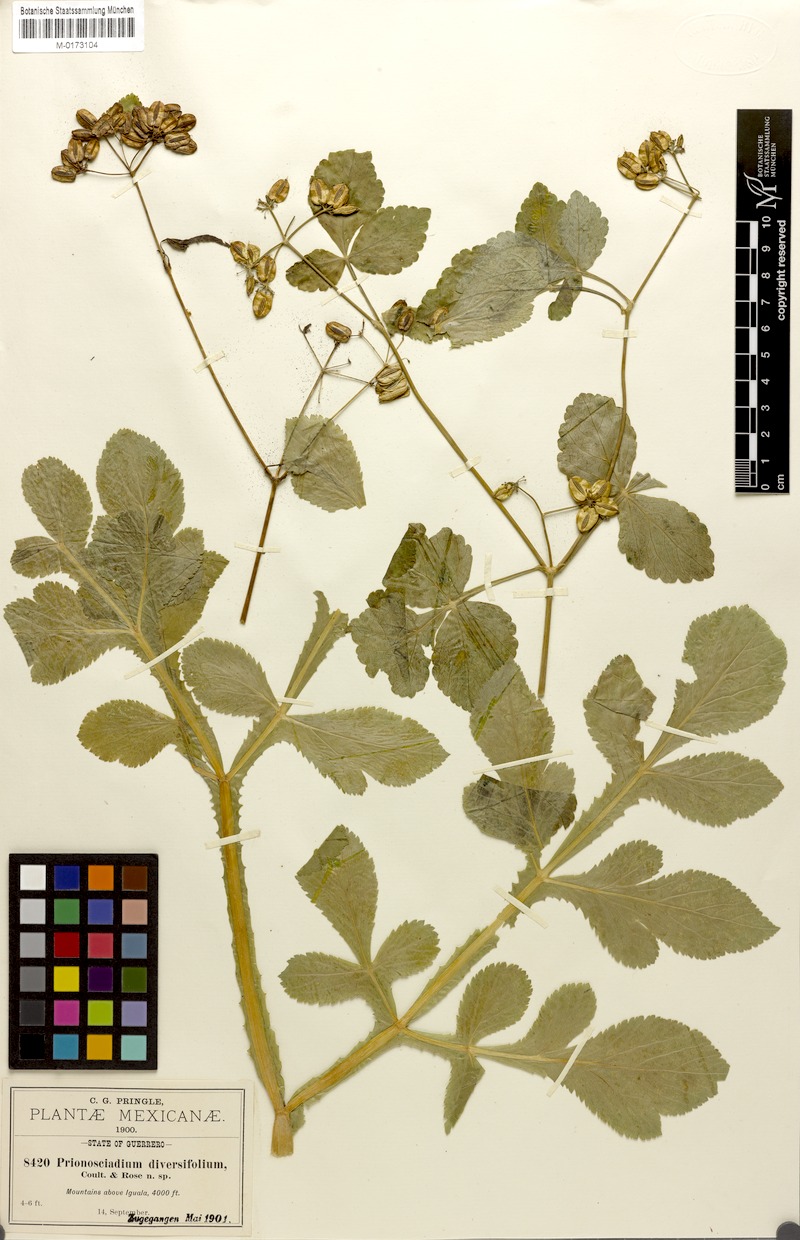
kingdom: Plantae
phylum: Tracheophyta
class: Magnoliopsida
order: Apiales
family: Apiaceae
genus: Prionosciadium
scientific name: Prionosciadium diversifolium
